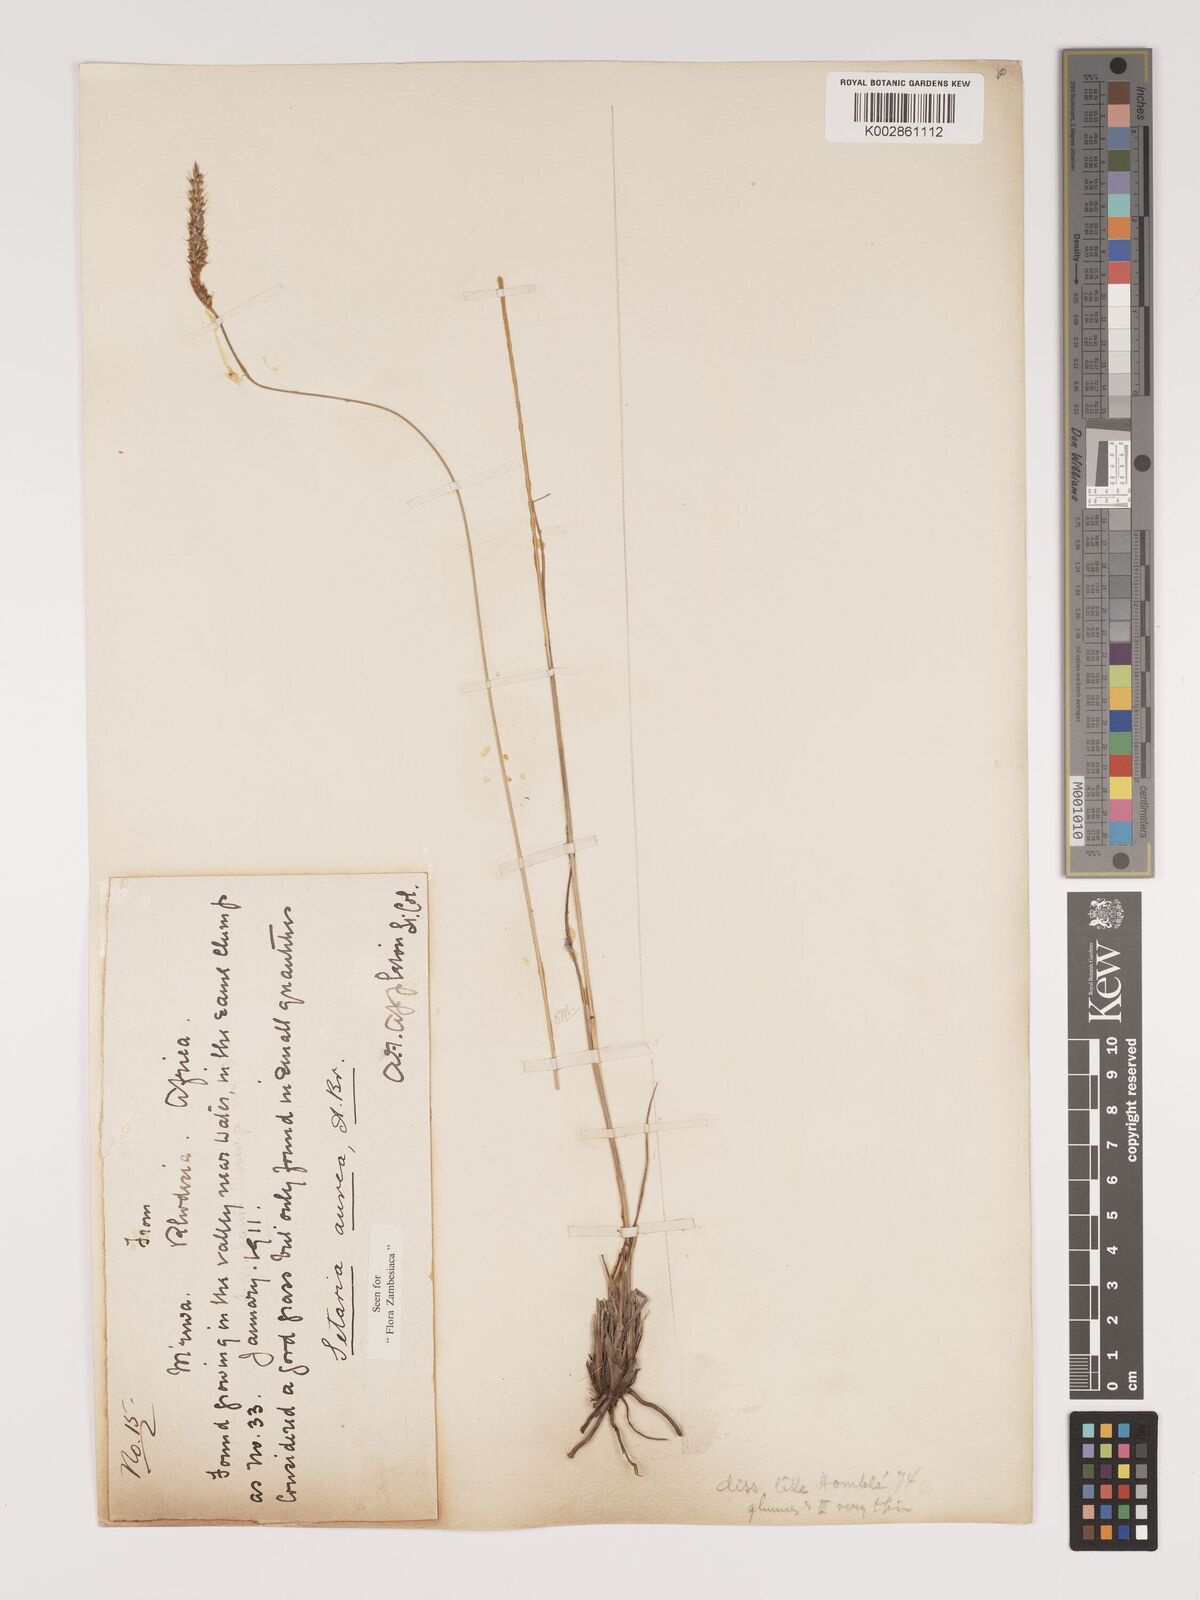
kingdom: Plantae
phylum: Tracheophyta
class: Liliopsida
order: Poales
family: Poaceae
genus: Setaria
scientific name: Setaria sphacelata
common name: African bristlegrass
